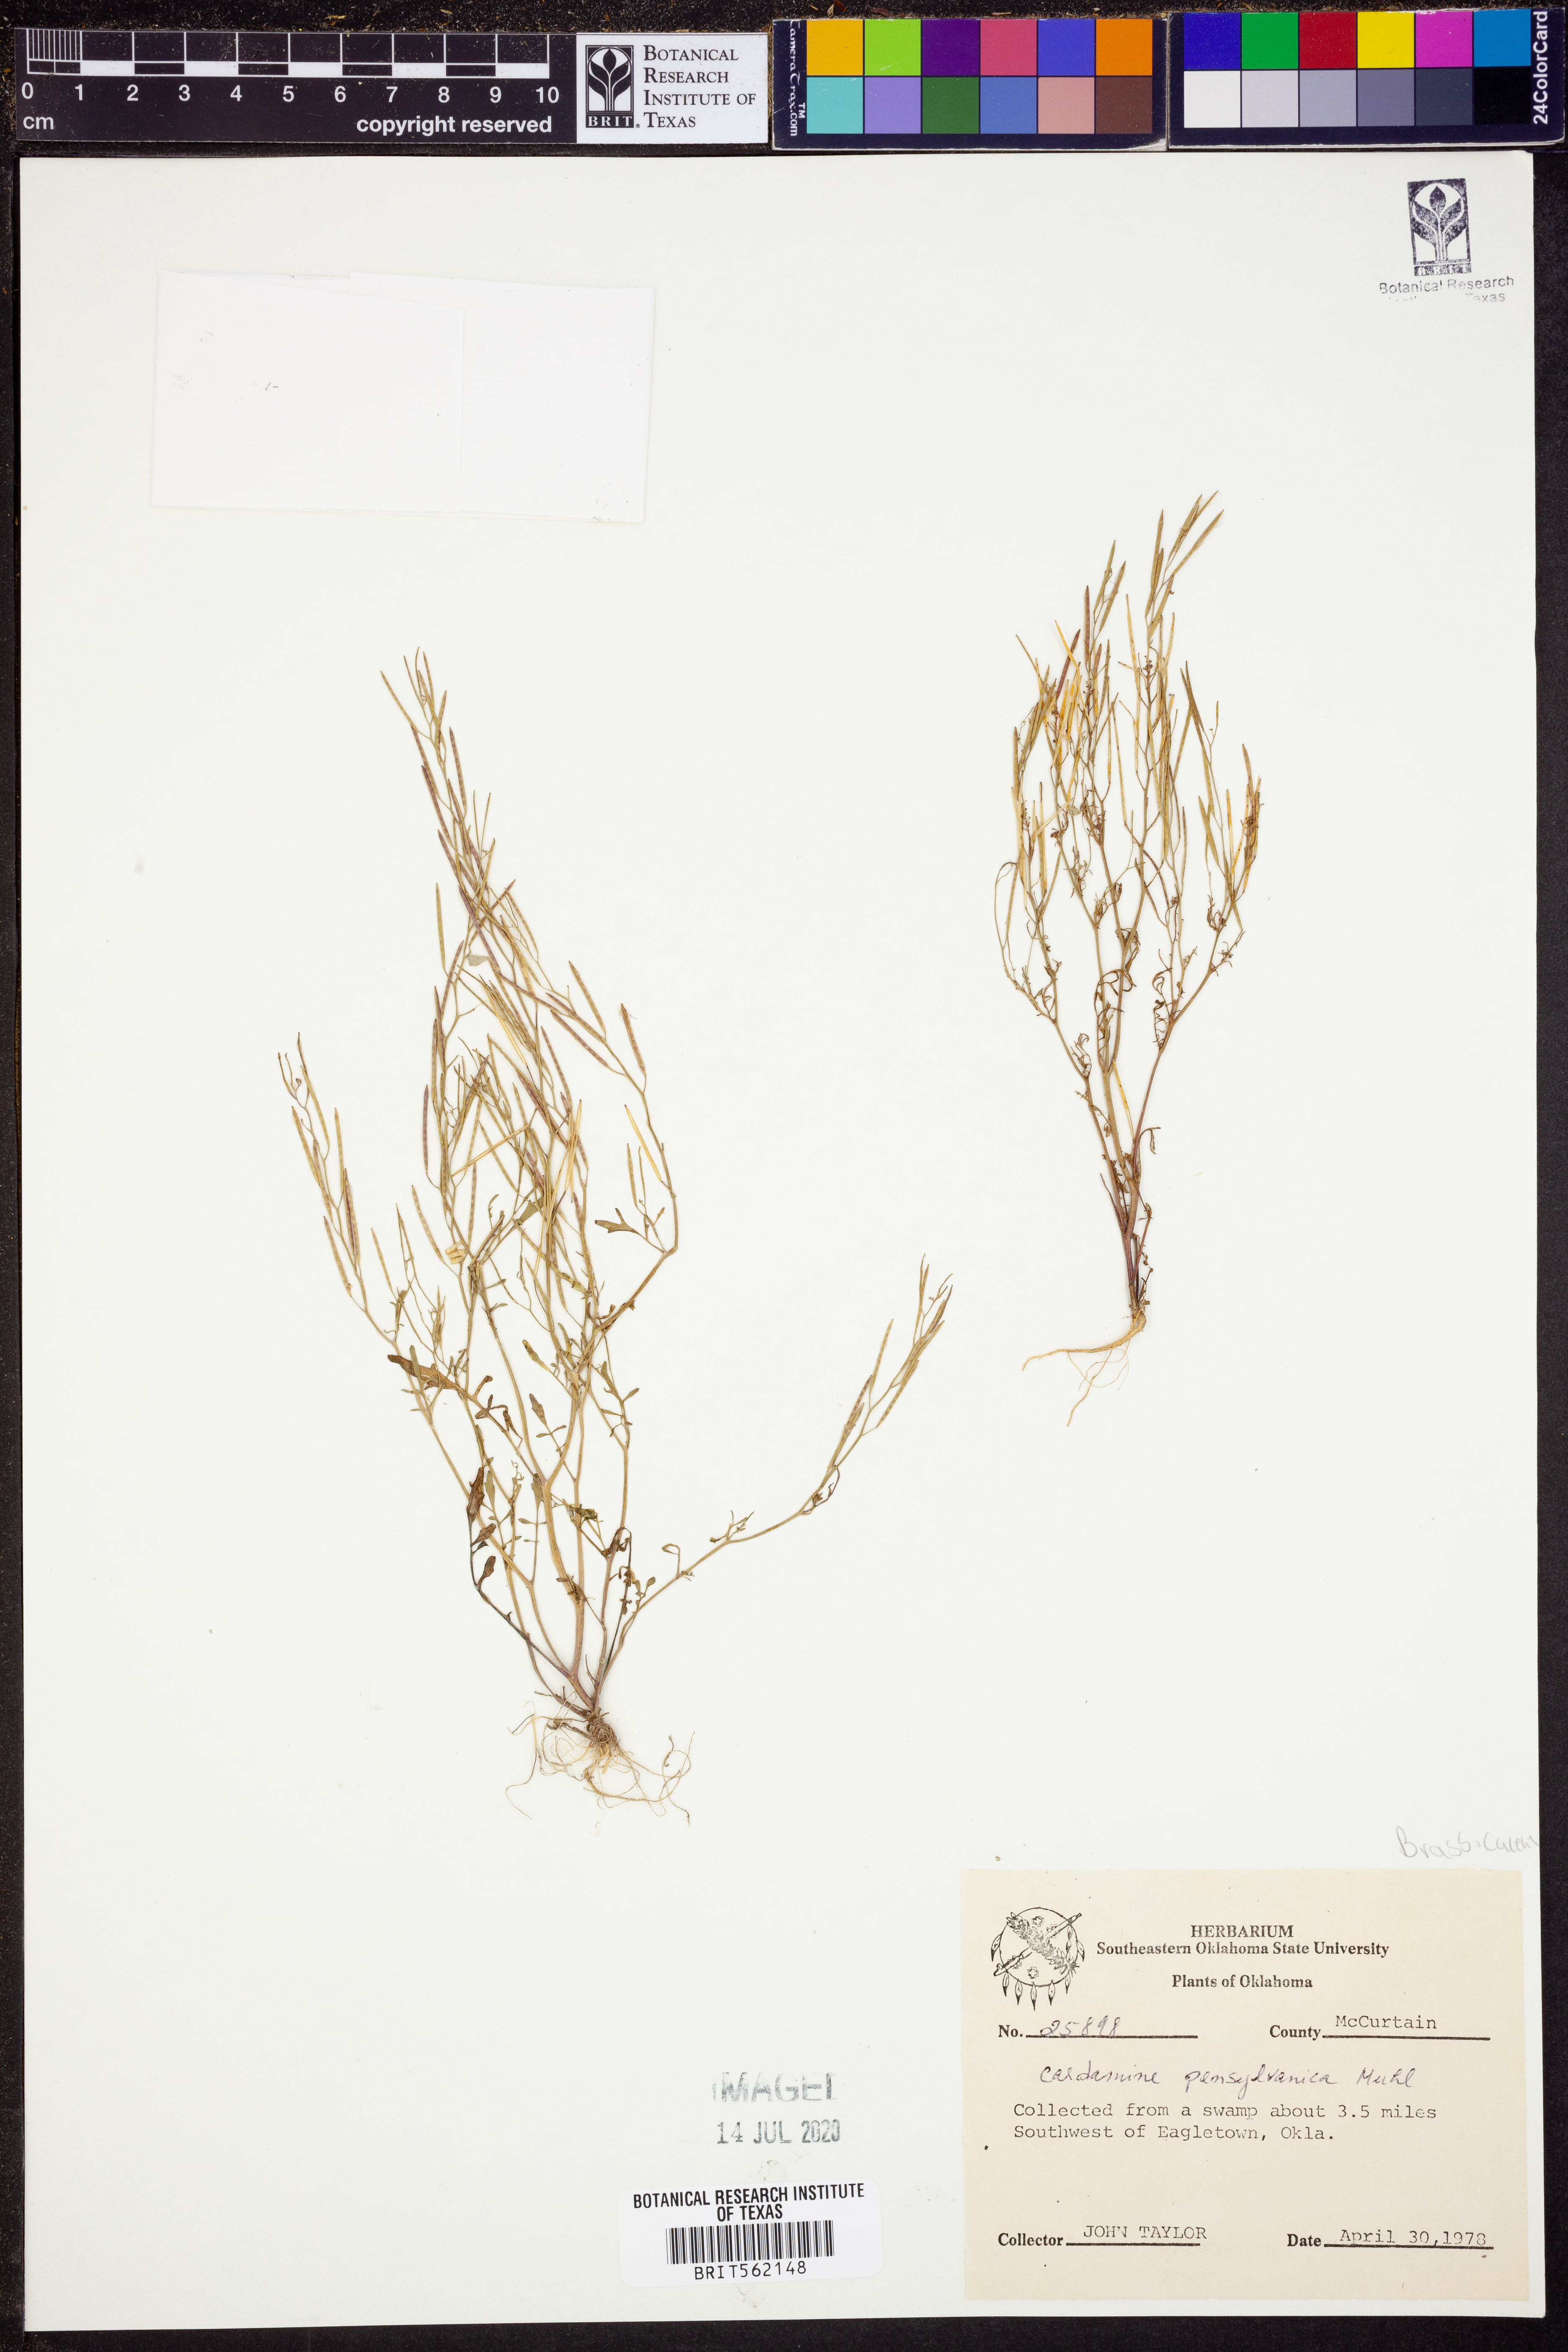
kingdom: Plantae
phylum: Tracheophyta
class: Magnoliopsida
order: Brassicales
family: Brassicaceae
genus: Cardamine
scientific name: Cardamine pensylvanica
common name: Pennsylvania bittercress
